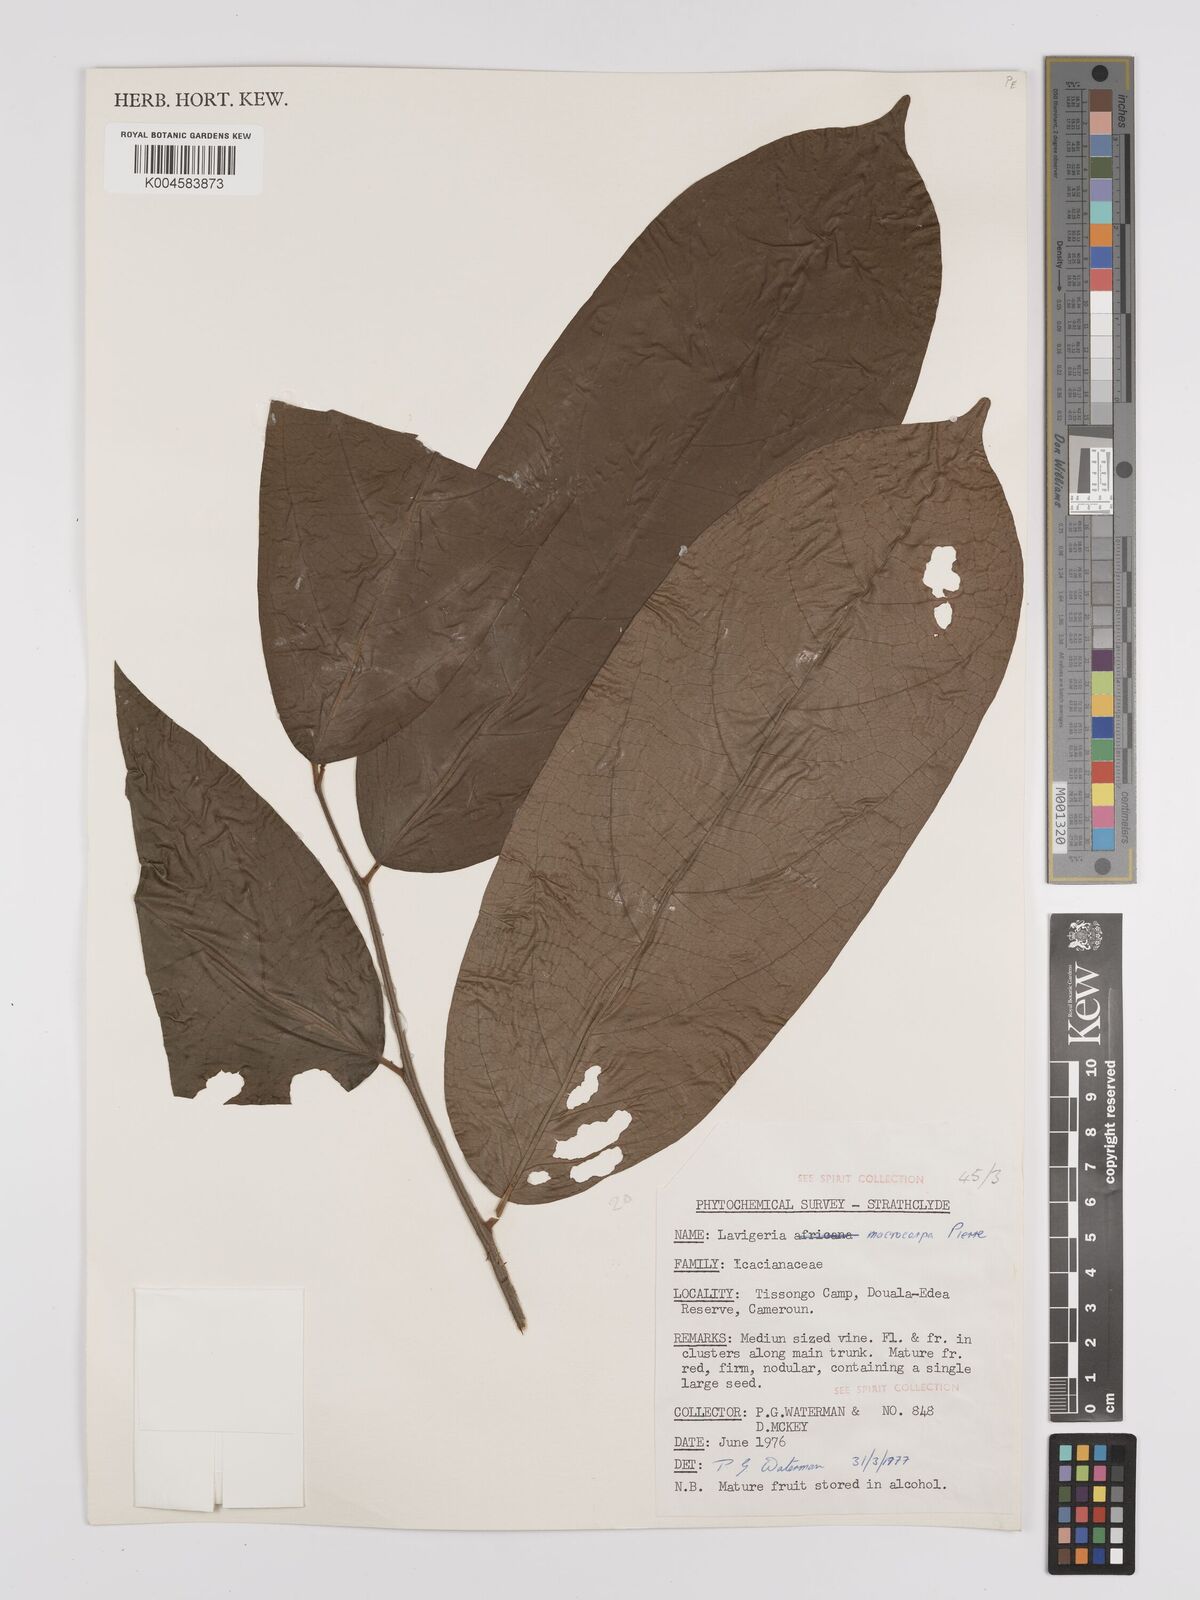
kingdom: Plantae
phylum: Tracheophyta
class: Magnoliopsida
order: Icacinales
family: Icacinaceae
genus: Lavigeria
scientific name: Lavigeria macrocarpa
